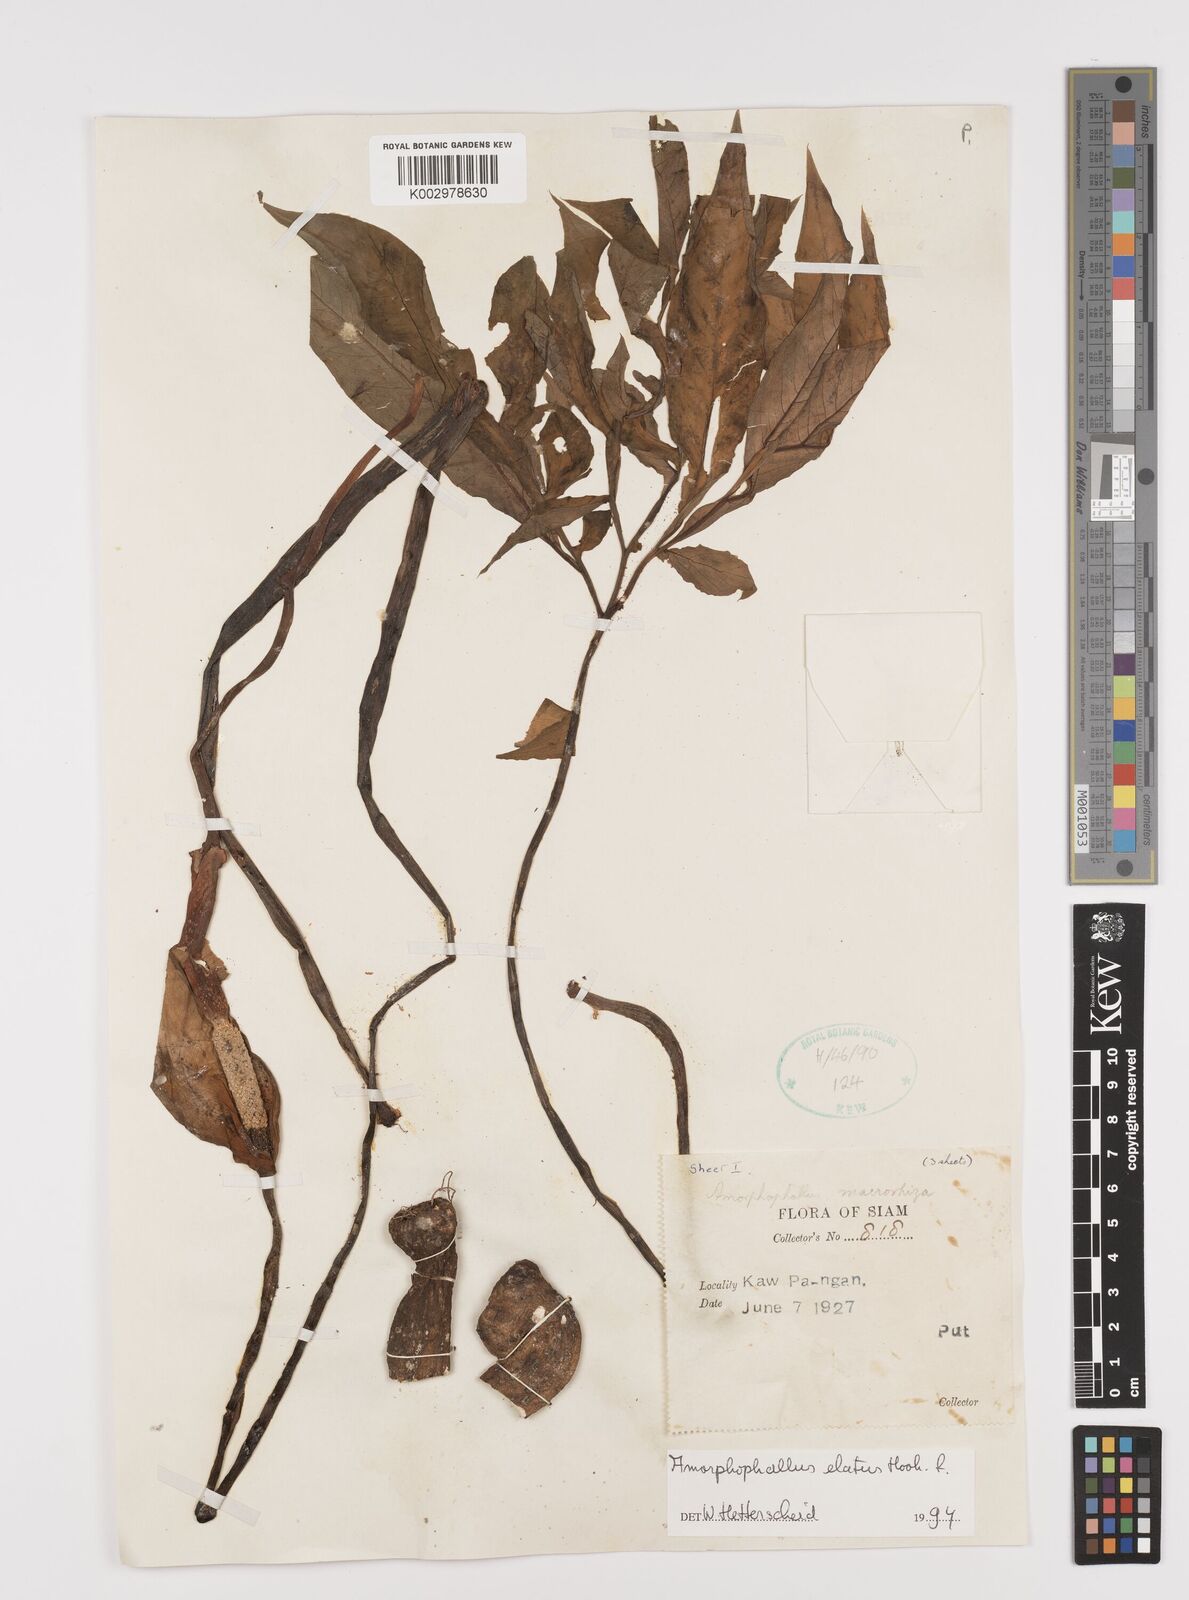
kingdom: Plantae
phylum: Tracheophyta
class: Liliopsida
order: Alismatales
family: Araceae
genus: Amorphophallus
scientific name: Amorphophallus elatus
